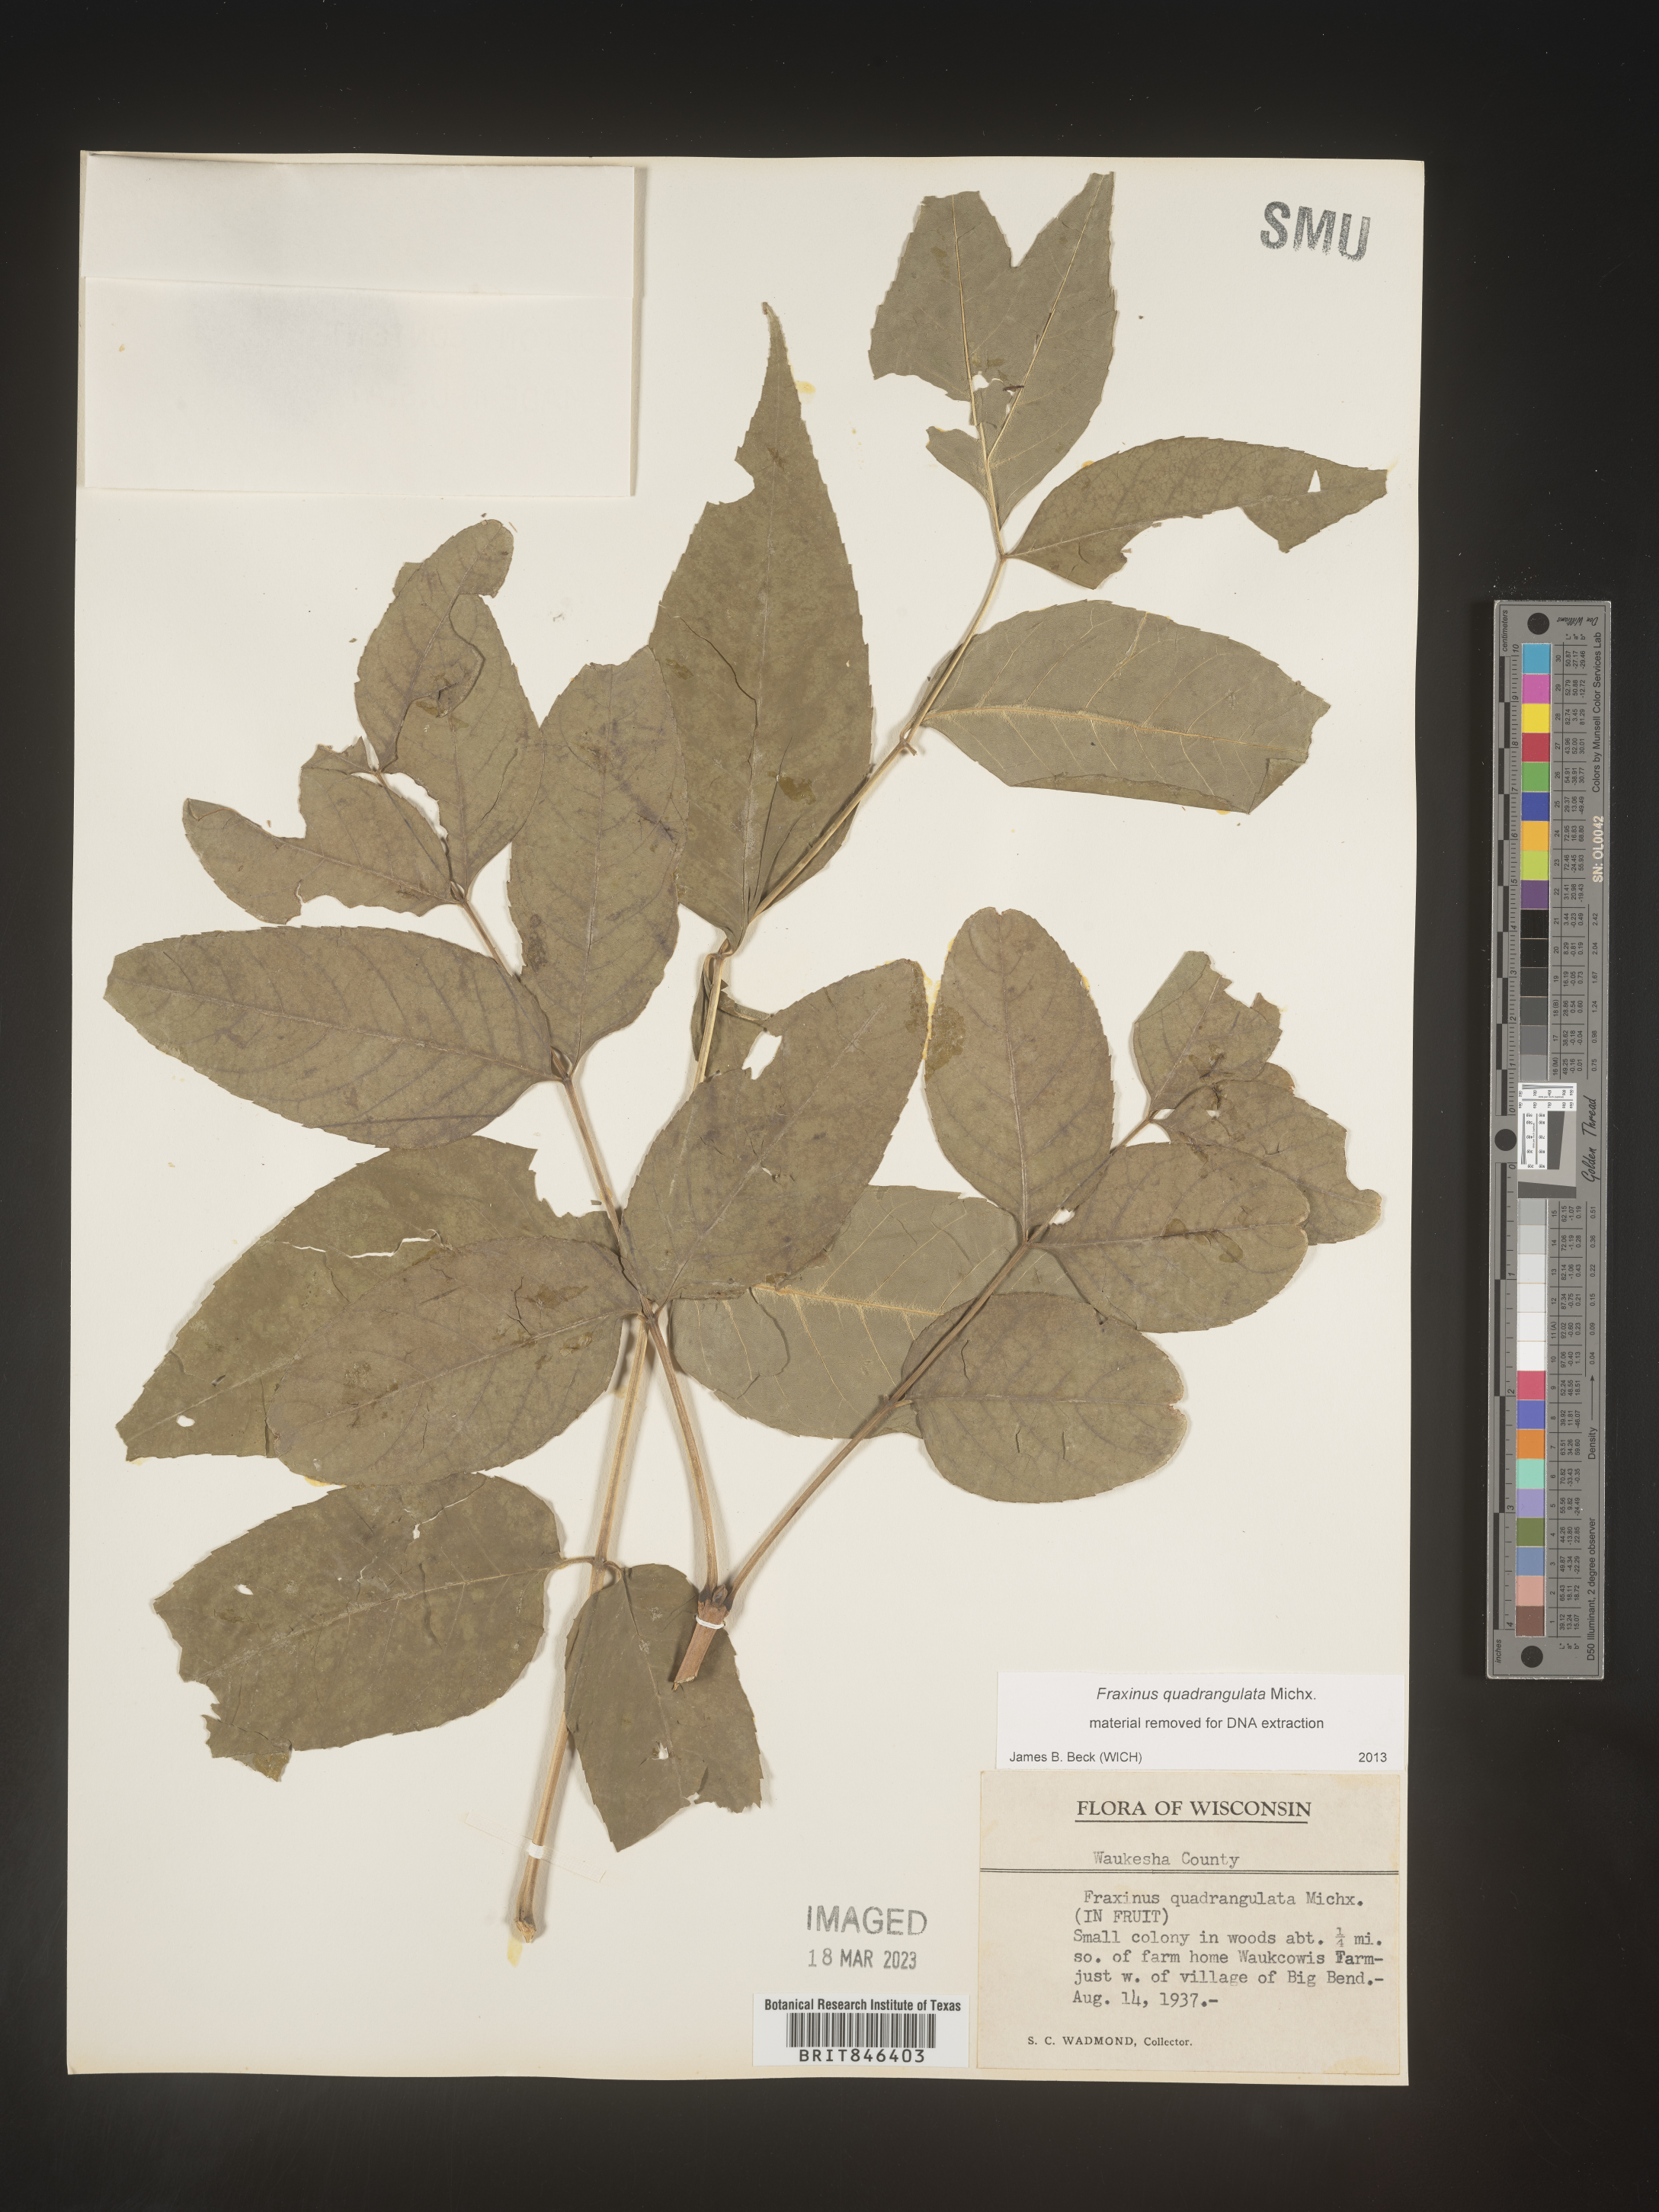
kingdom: Plantae
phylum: Tracheophyta
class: Magnoliopsida
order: Lamiales
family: Oleaceae
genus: Fraxinus
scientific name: Fraxinus quadrangulata
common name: Blue ash
